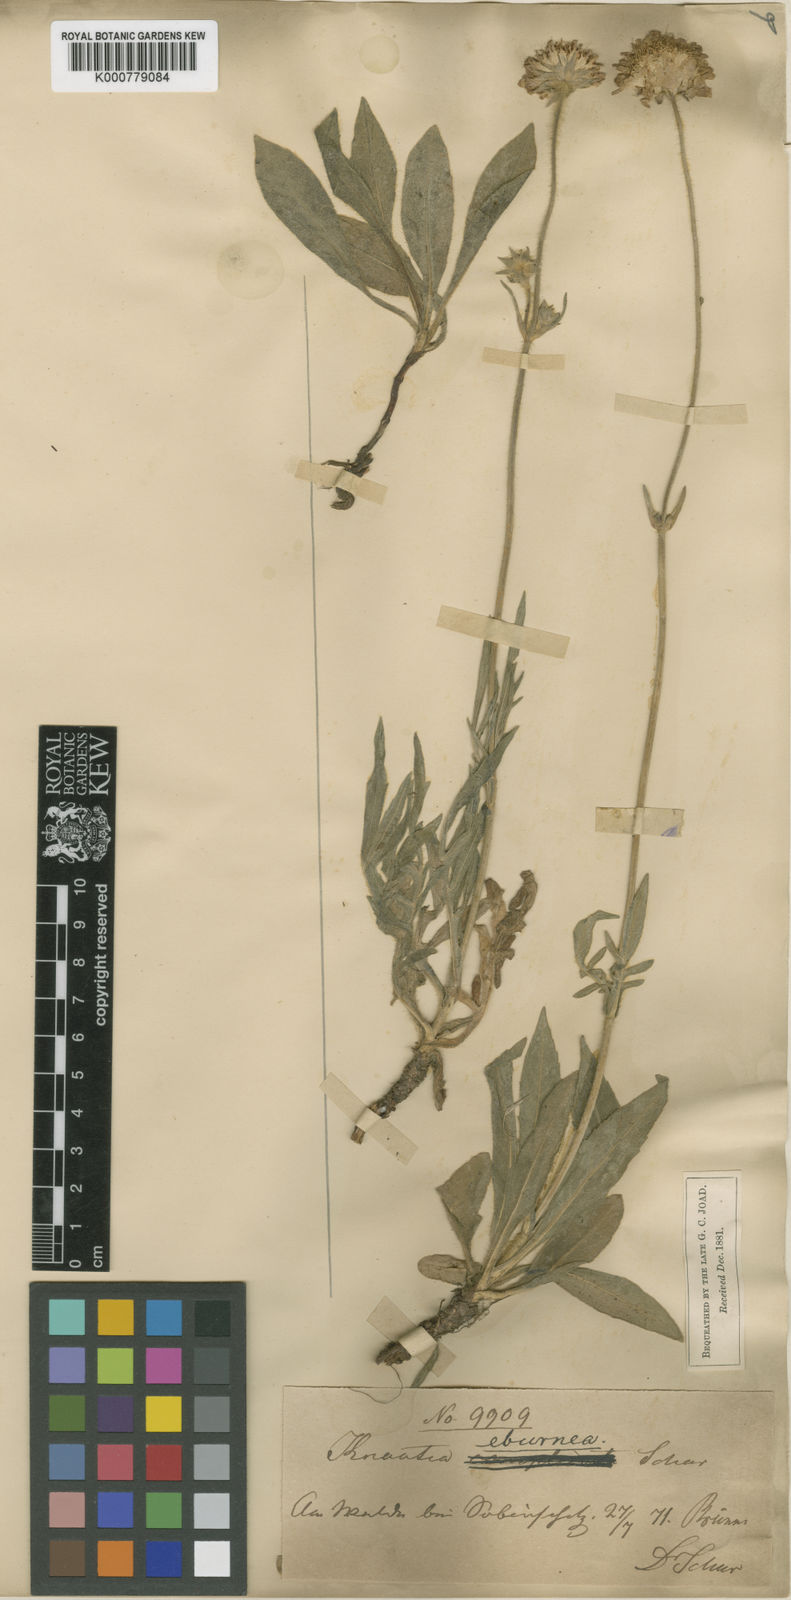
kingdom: Plantae
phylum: Tracheophyta
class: Magnoliopsida
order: Dipsacales
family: Caprifoliaceae
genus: Knautia
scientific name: Knautia dinarica
